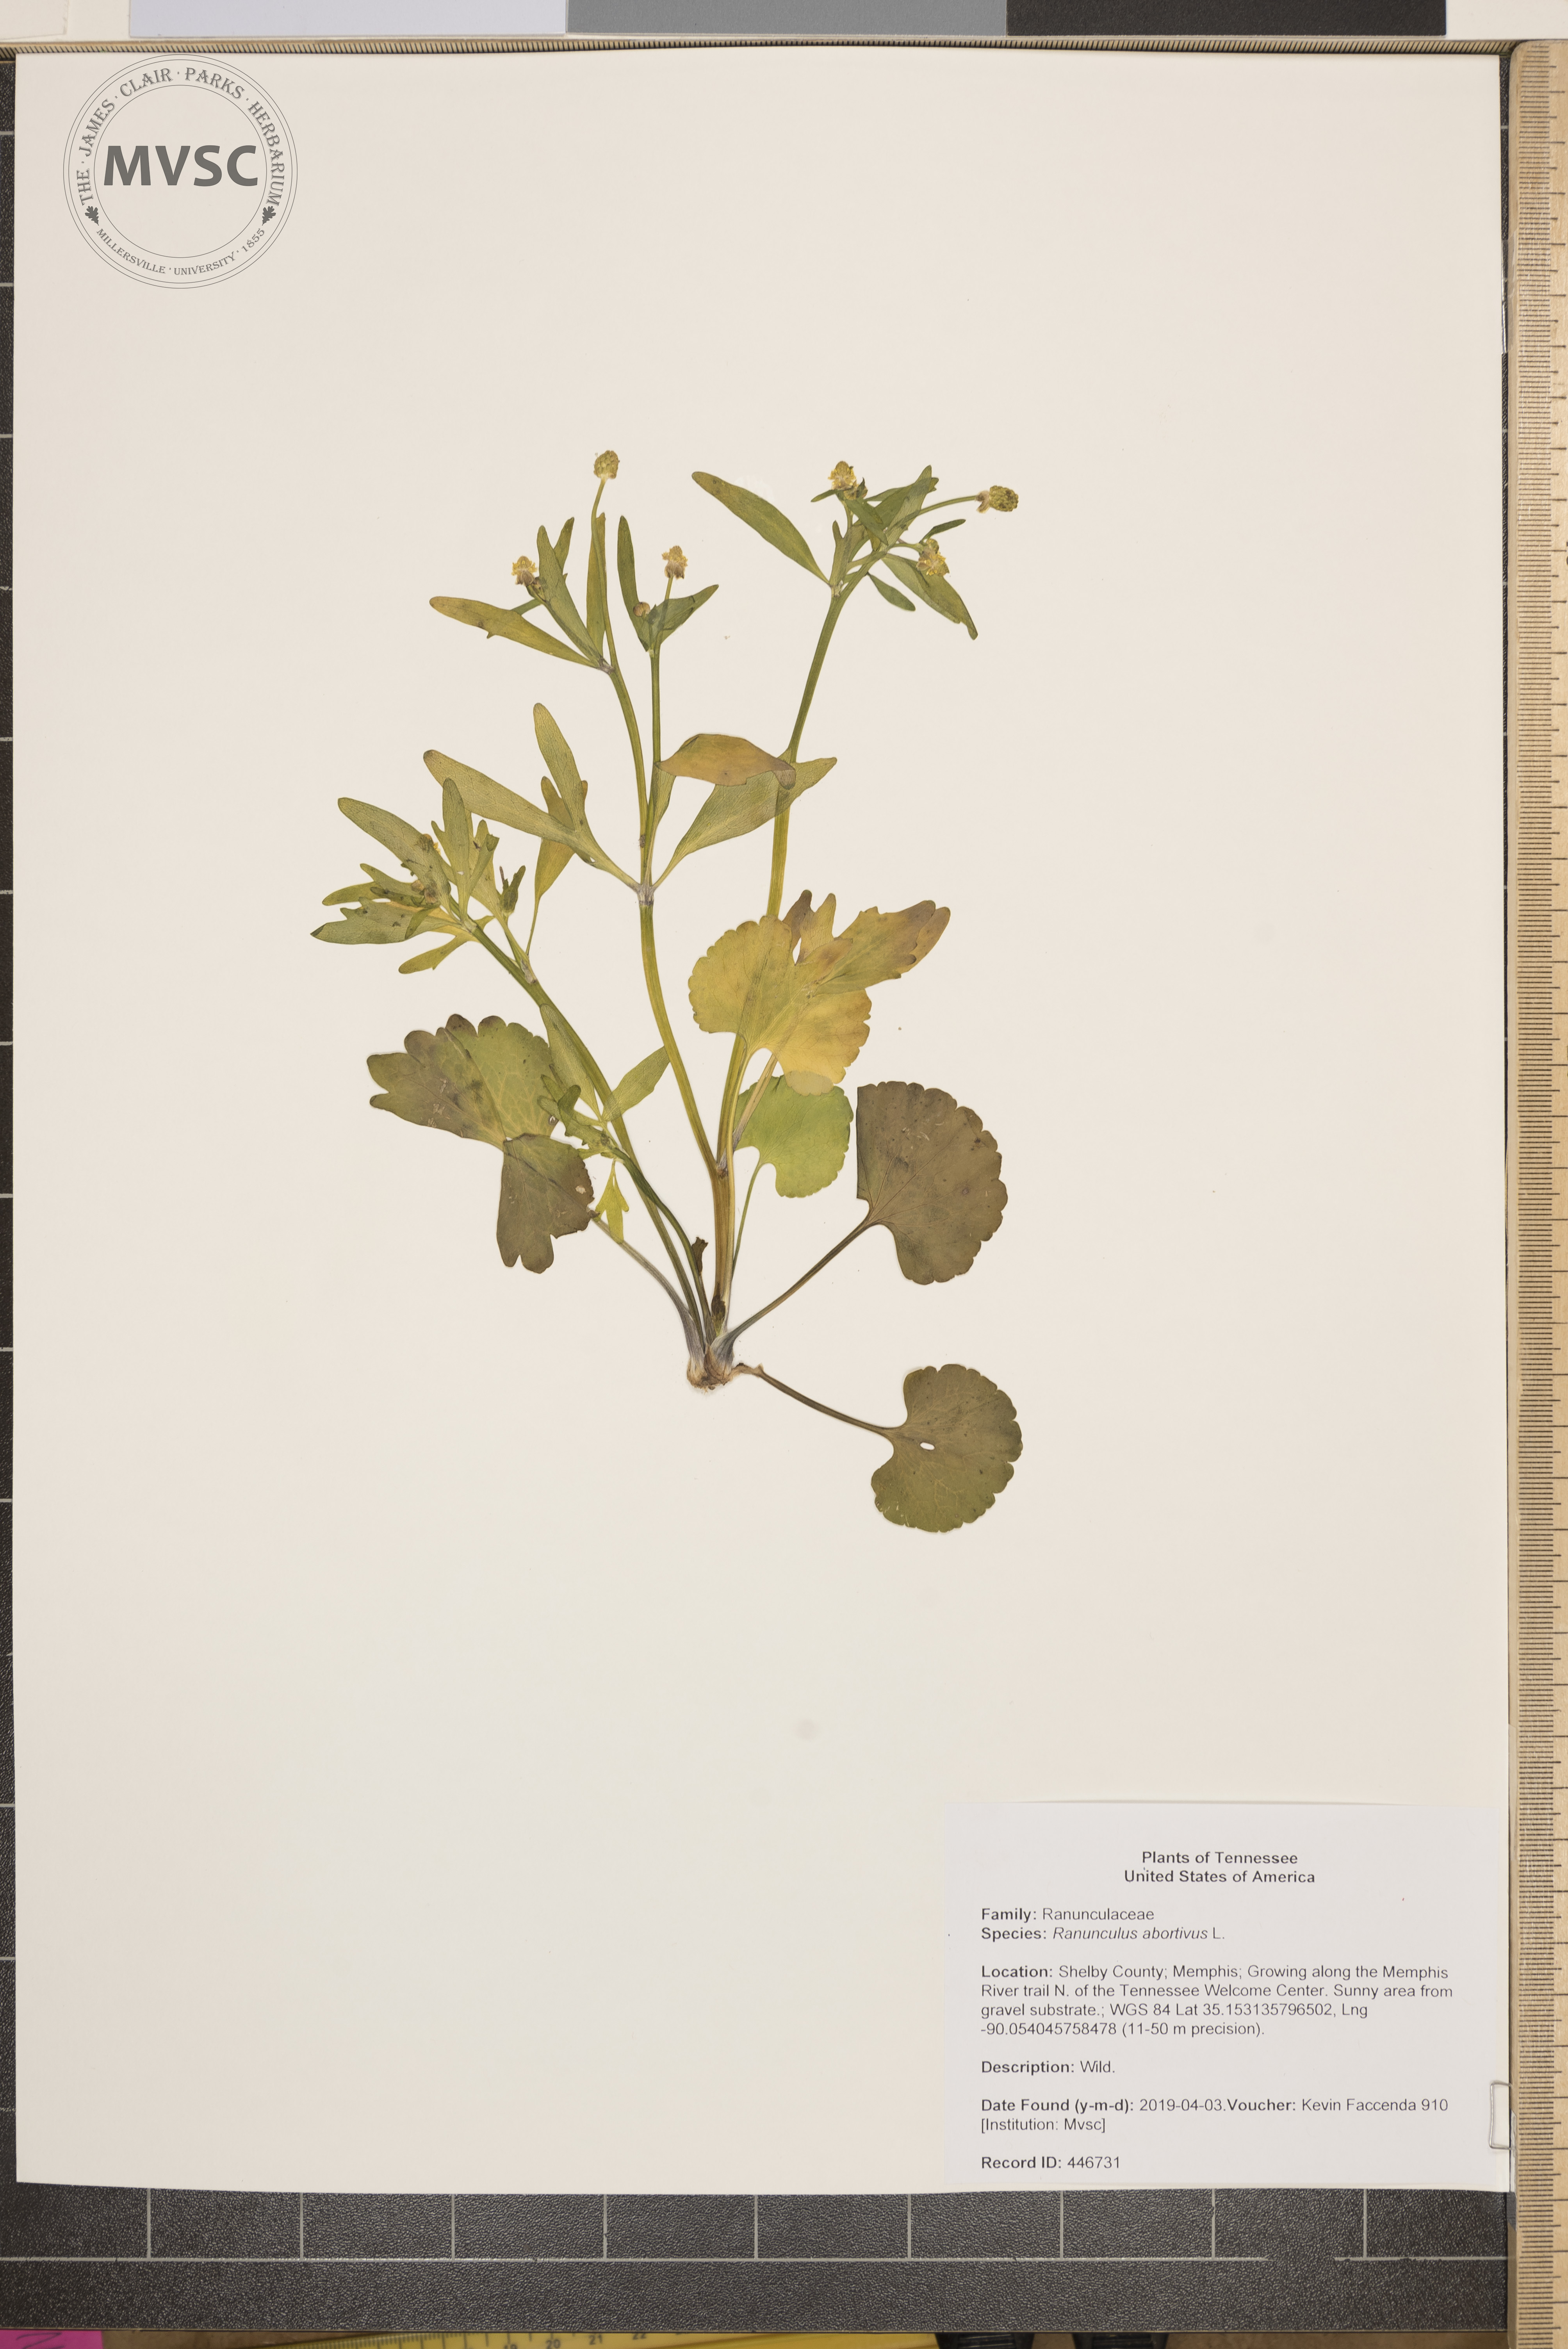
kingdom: Plantae
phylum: Tracheophyta
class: Magnoliopsida
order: Ranunculales
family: Ranunculaceae
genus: Ranunculus
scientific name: Ranunculus abortivus
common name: Early wood buttercup
